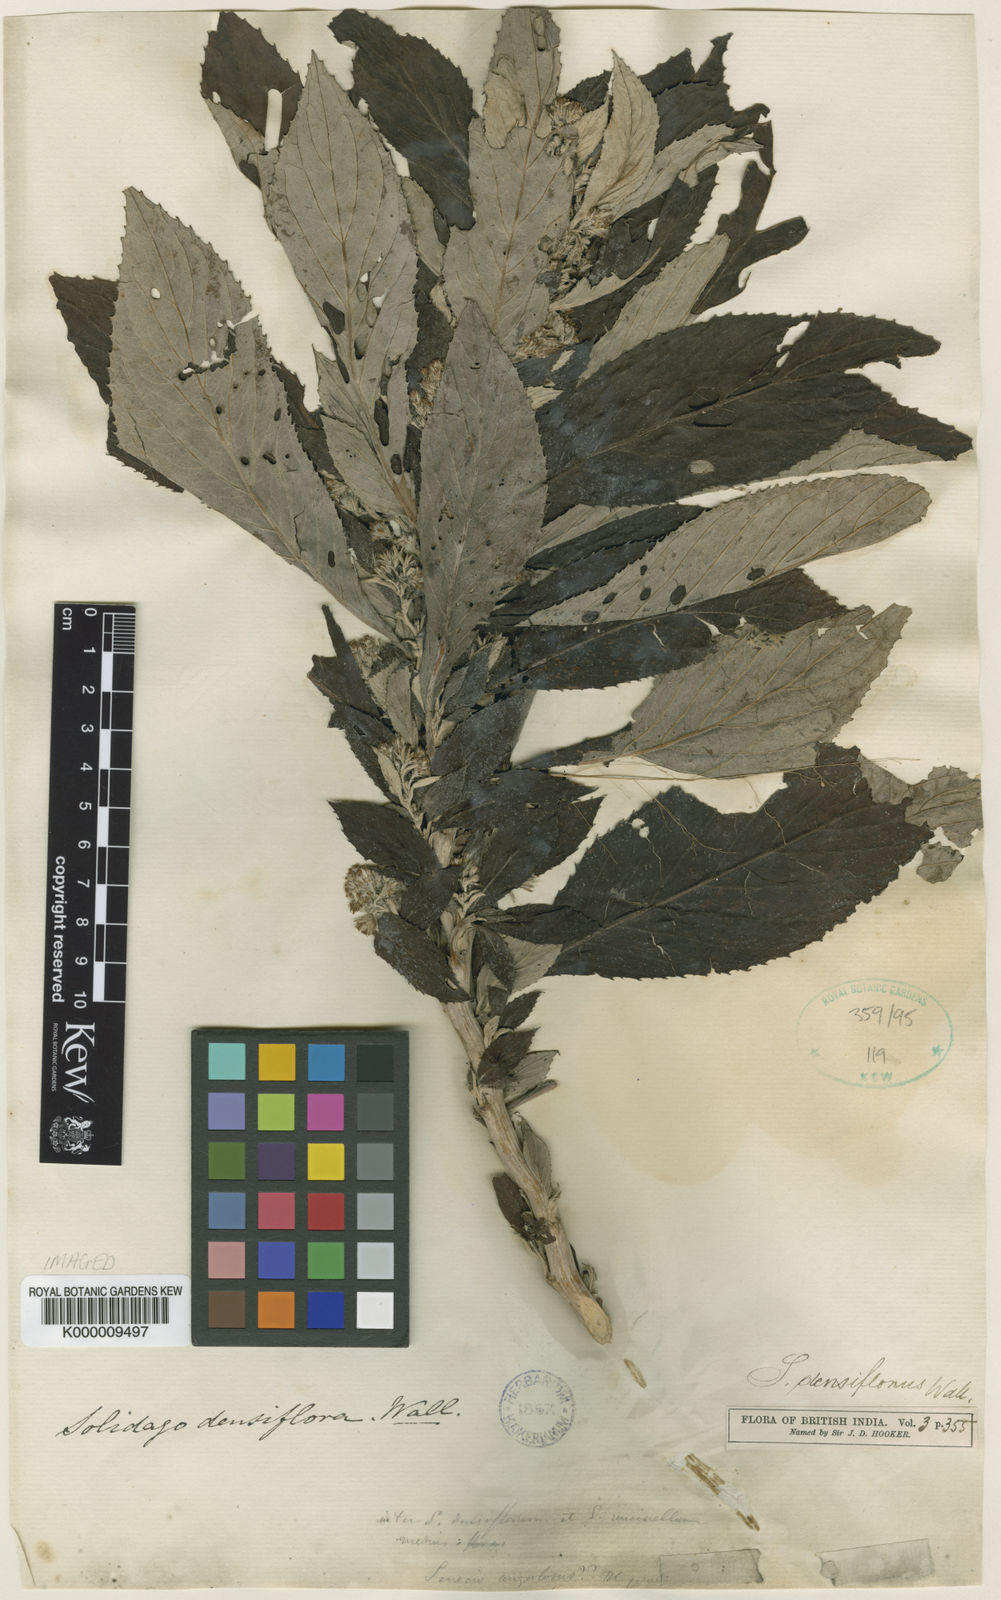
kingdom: Plantae
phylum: Tracheophyta
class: Magnoliopsida
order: Asterales
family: Asteraceae
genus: Synotis
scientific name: Synotis cappa
